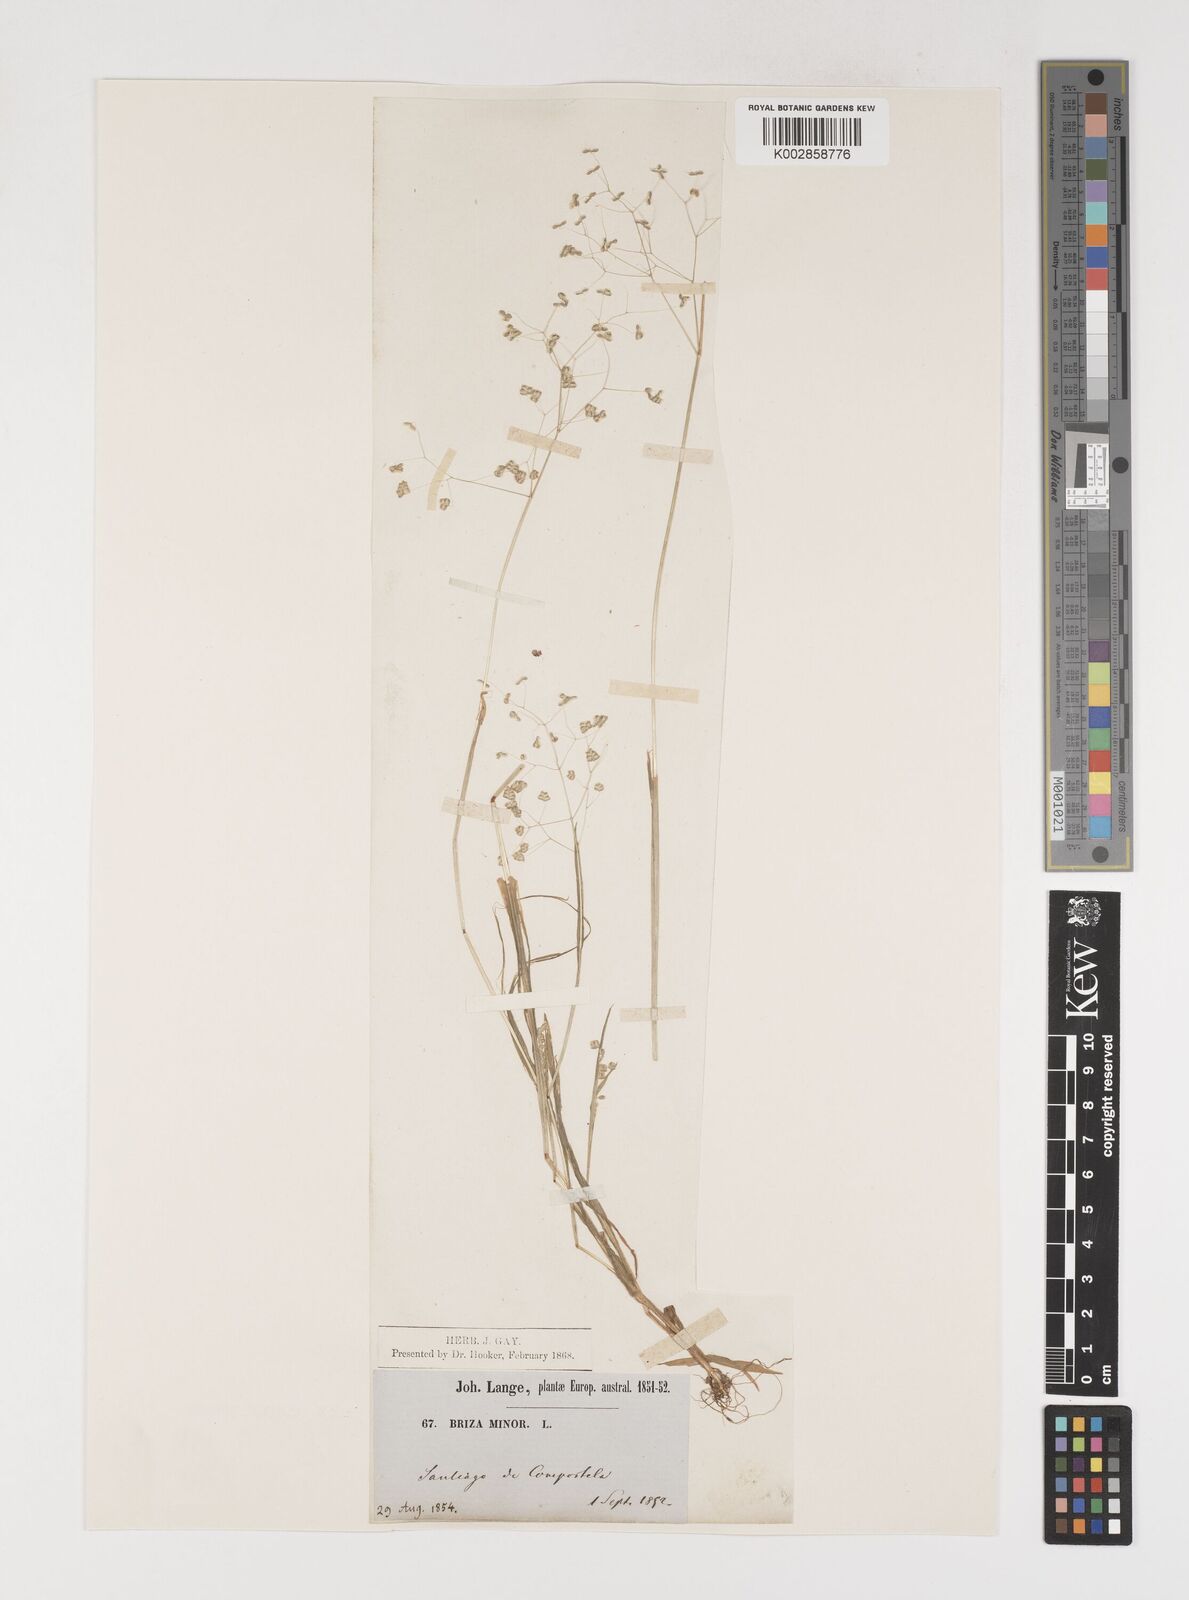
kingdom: Plantae
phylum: Tracheophyta
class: Liliopsida
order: Poales
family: Poaceae
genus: Briza
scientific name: Briza minor
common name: Lesser quaking-grass
